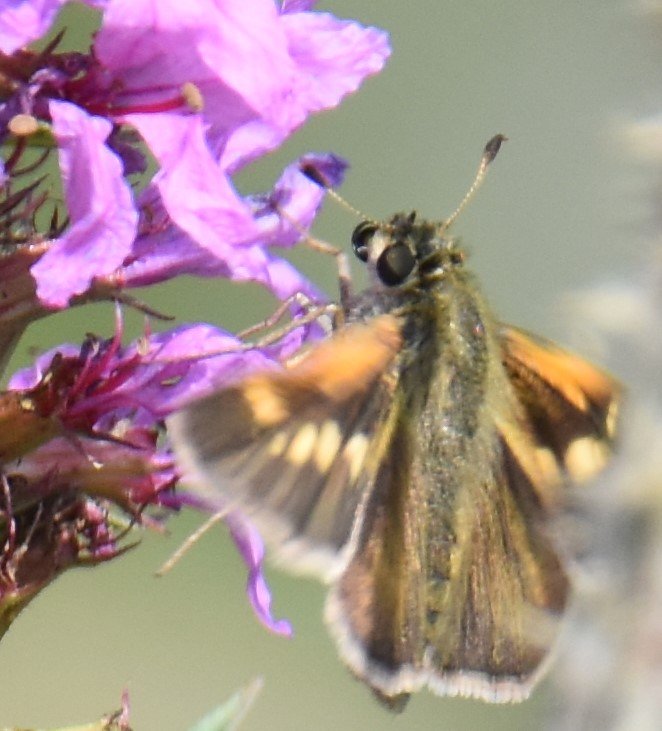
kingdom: Animalia
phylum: Arthropoda
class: Insecta
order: Lepidoptera
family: Hesperiidae
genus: Polites
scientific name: Polites themistocles
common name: Tawny-edged Skipper
